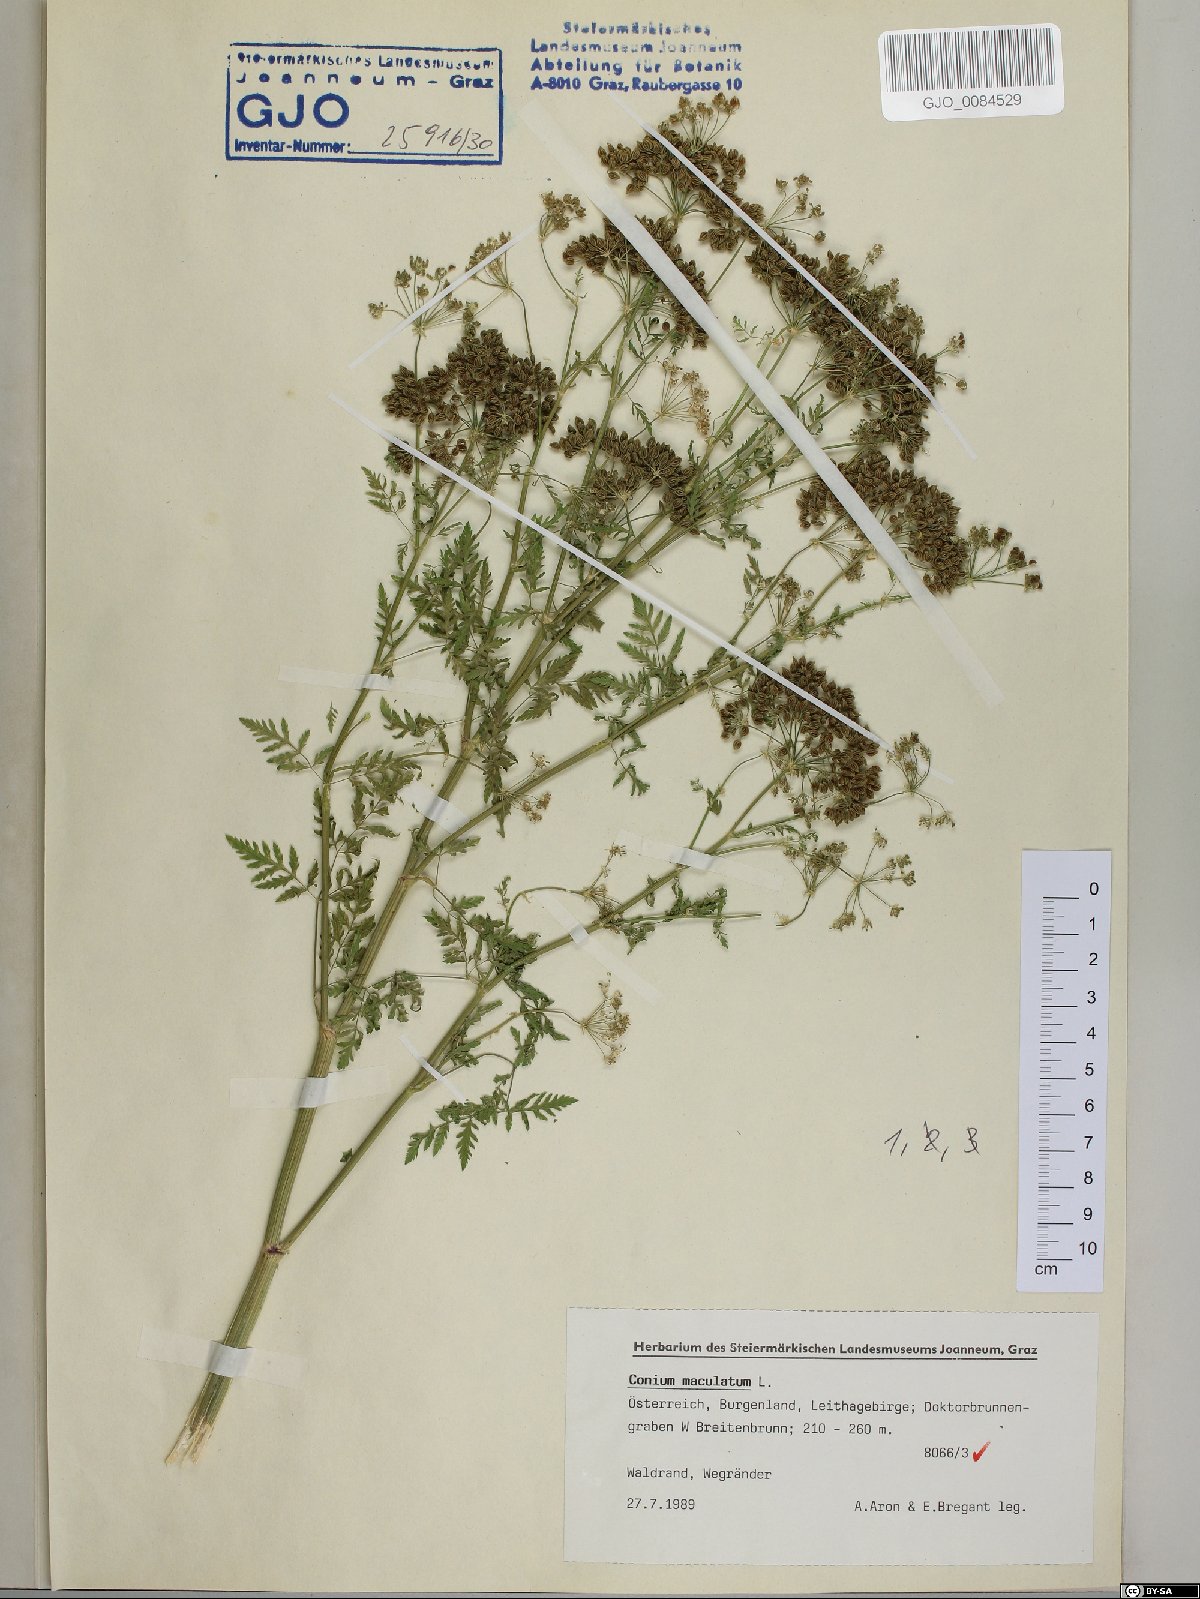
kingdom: Plantae
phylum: Tracheophyta
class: Magnoliopsida
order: Apiales
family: Apiaceae
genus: Conium
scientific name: Conium maculatum
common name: Hemlock
